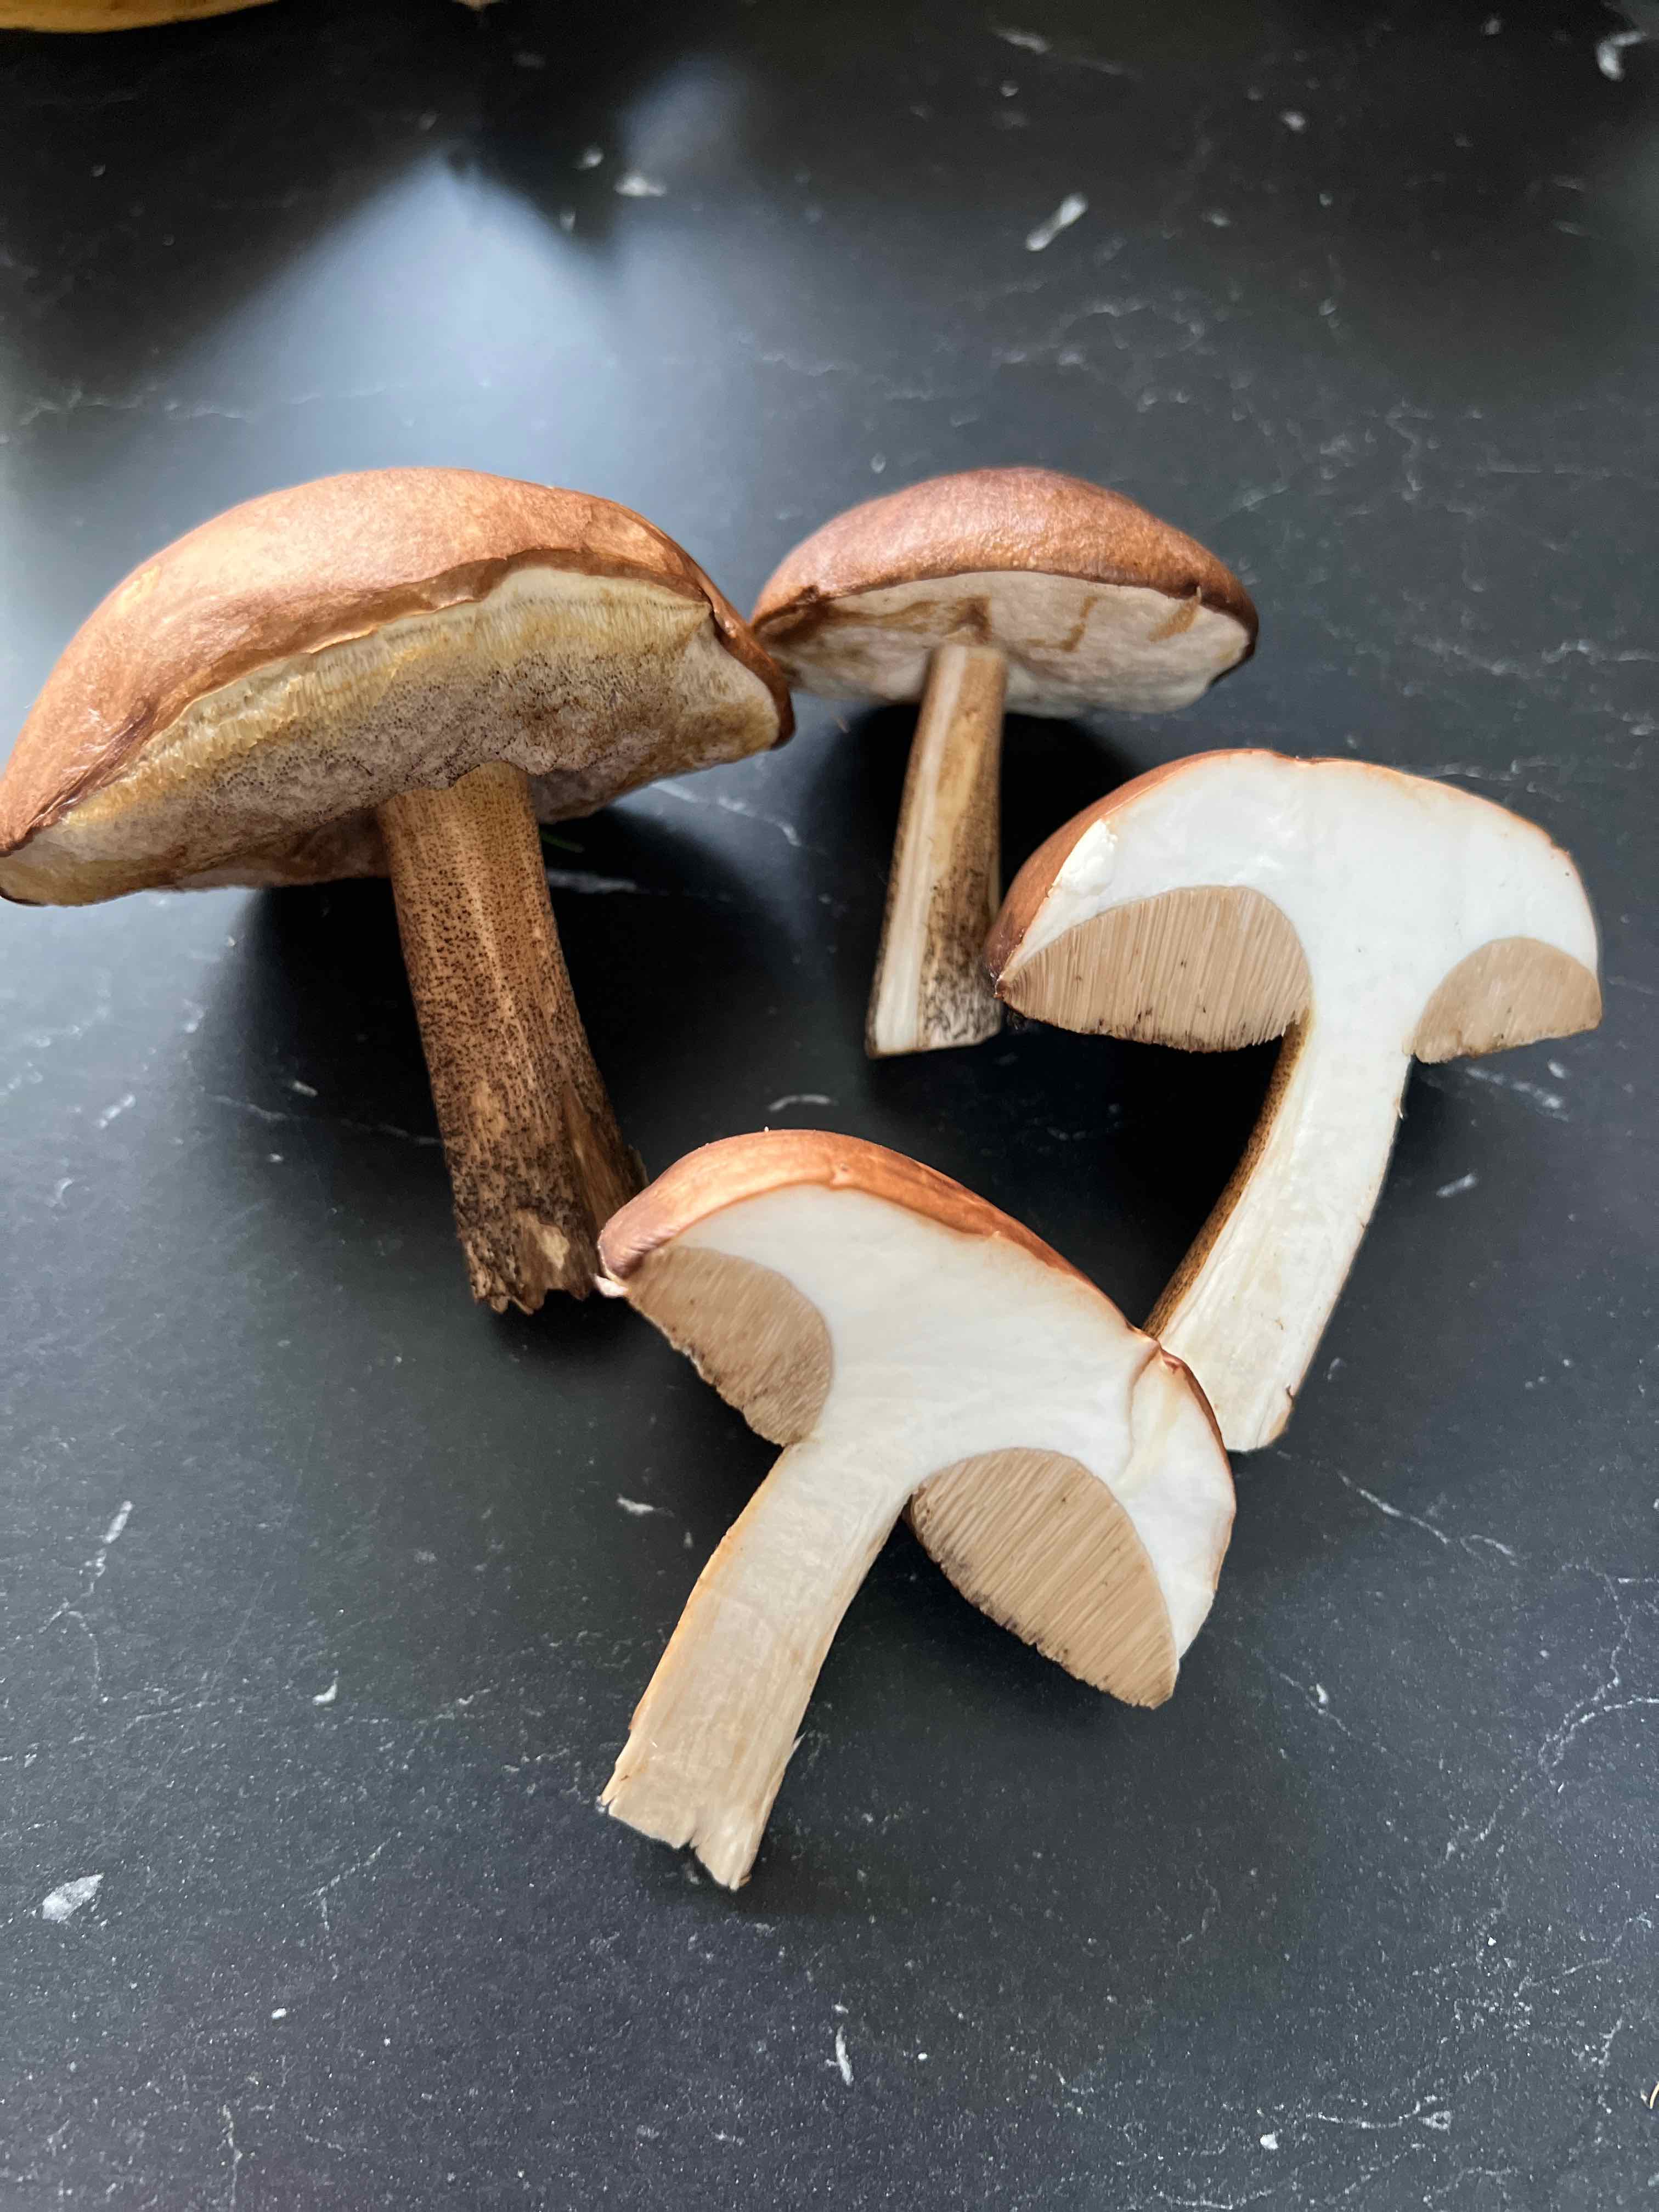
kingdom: Fungi
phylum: Basidiomycota
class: Agaricomycetes
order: Boletales
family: Boletaceae
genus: Leccinum
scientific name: Leccinum scabrum
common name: brun skælrørhat
